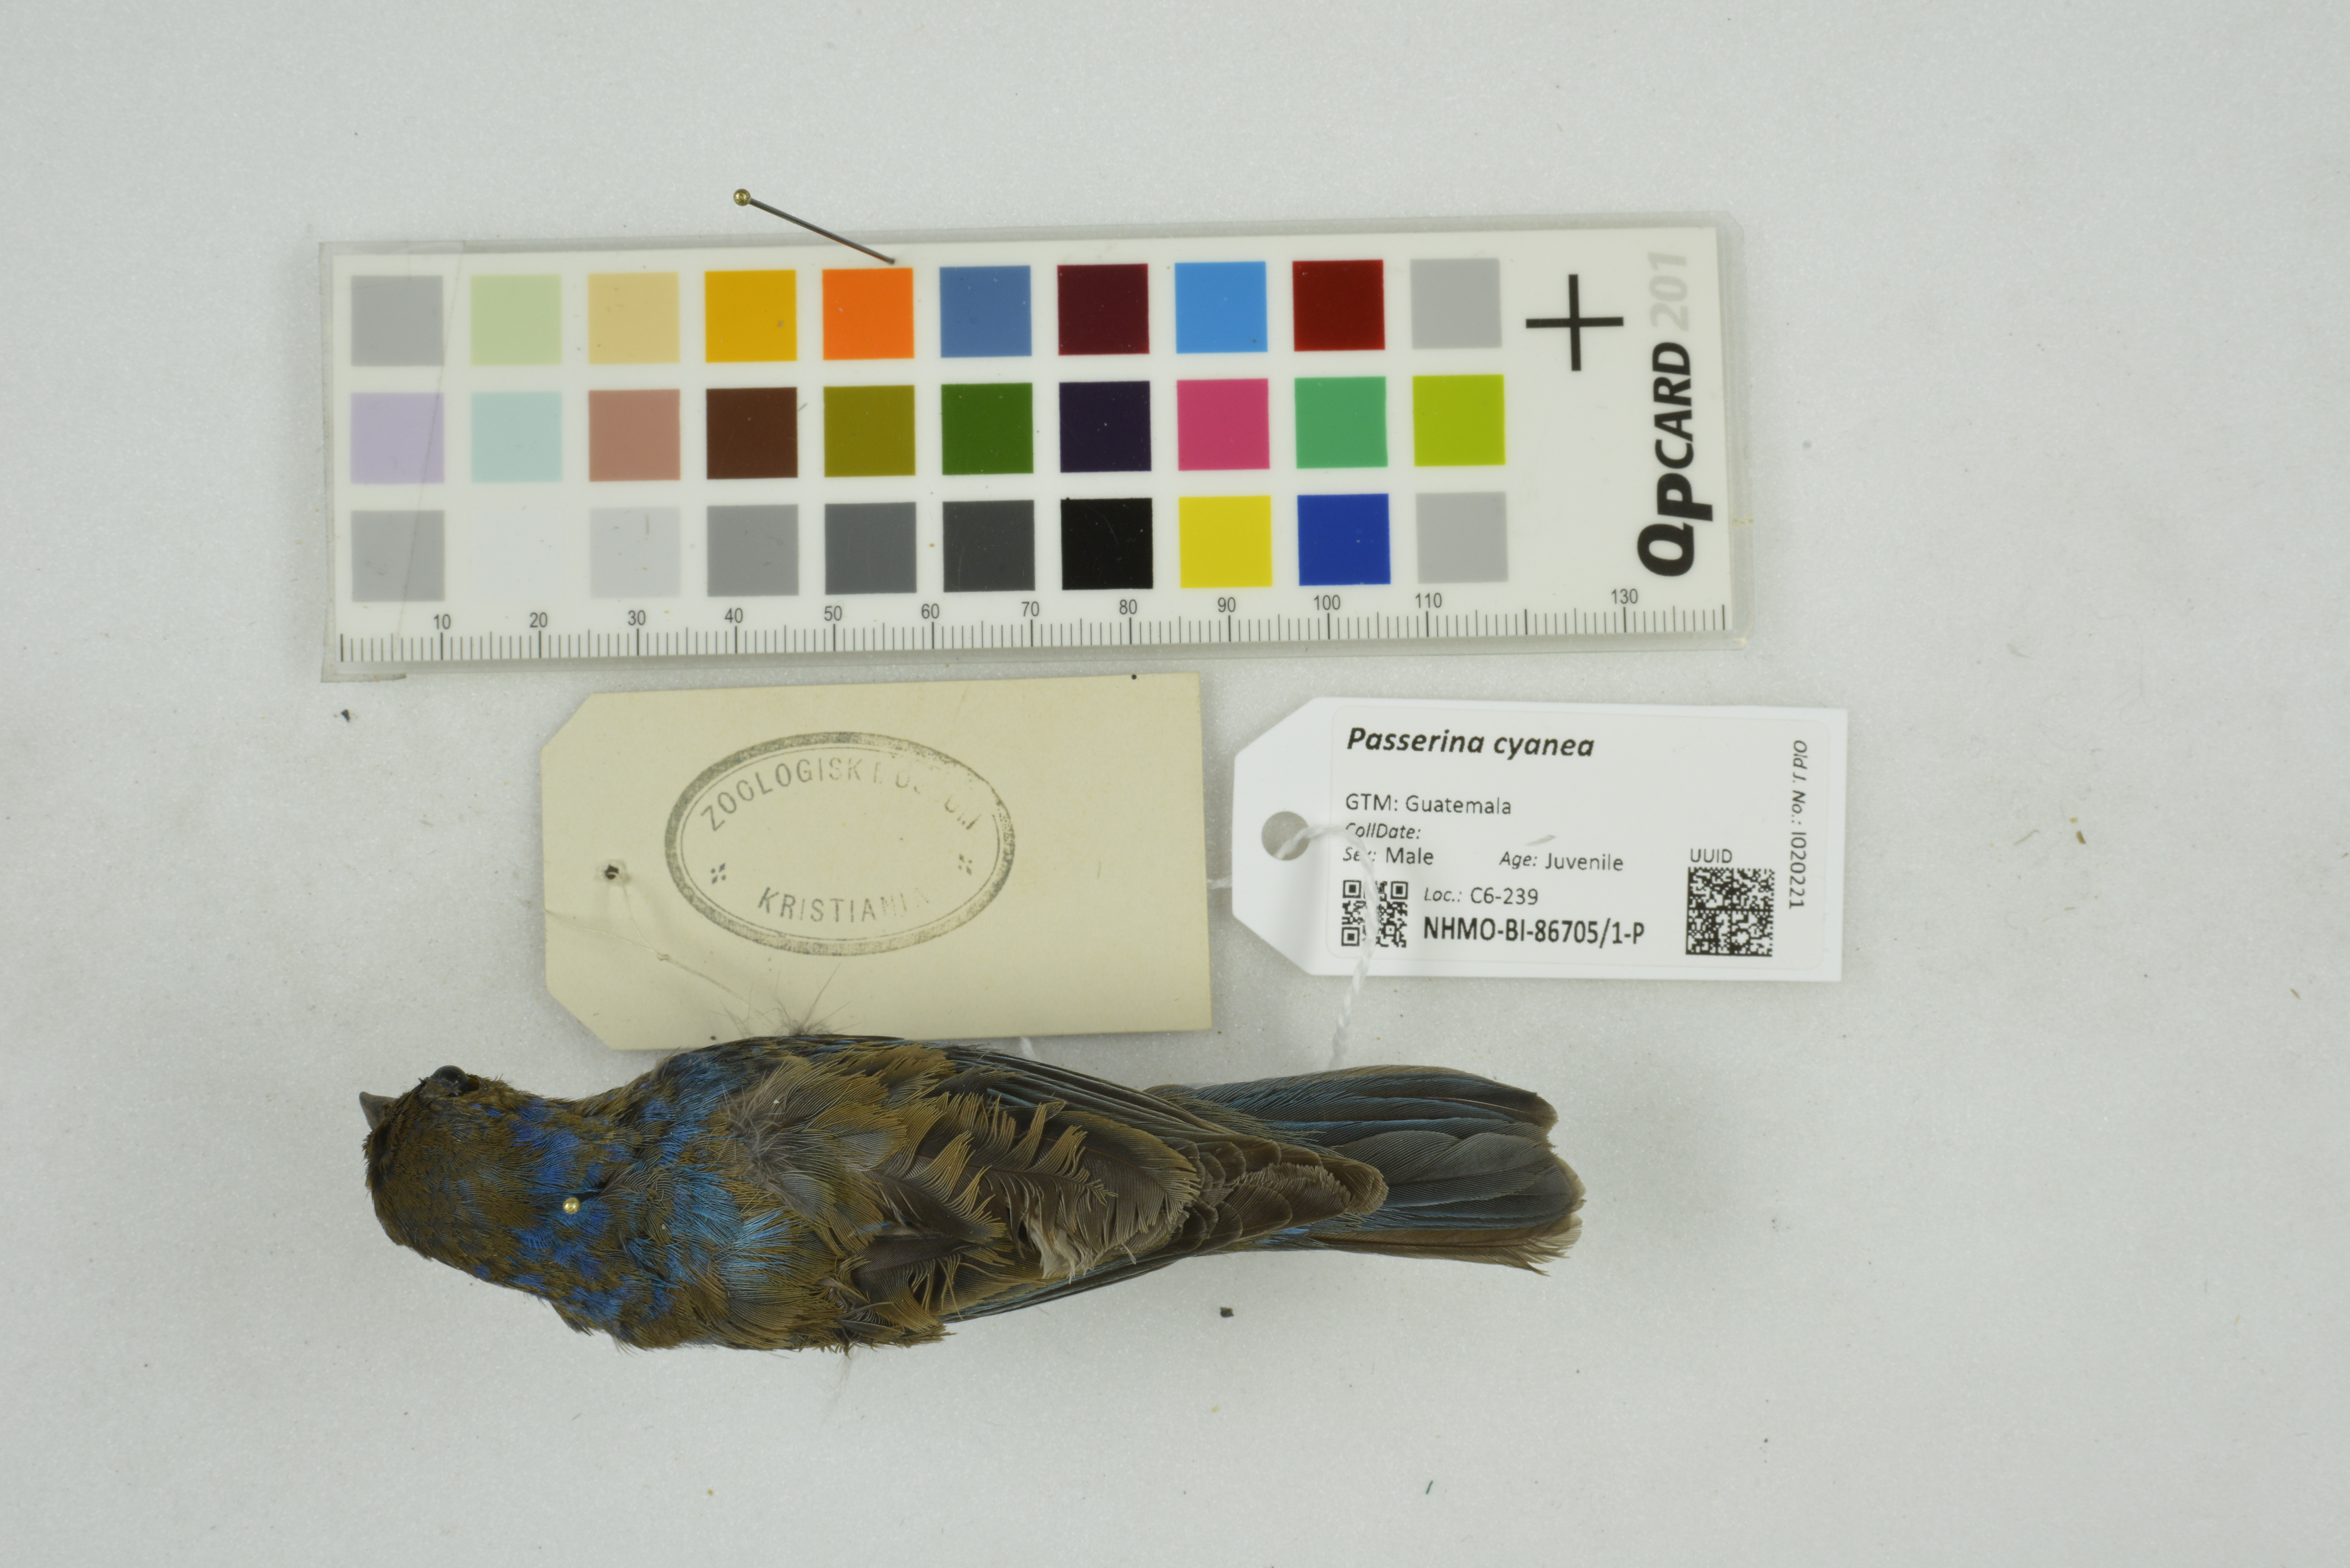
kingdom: Animalia
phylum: Chordata
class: Aves
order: Passeriformes
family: Cardinalidae
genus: Passerina
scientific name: Passerina cyanea
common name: Indigo bunting
